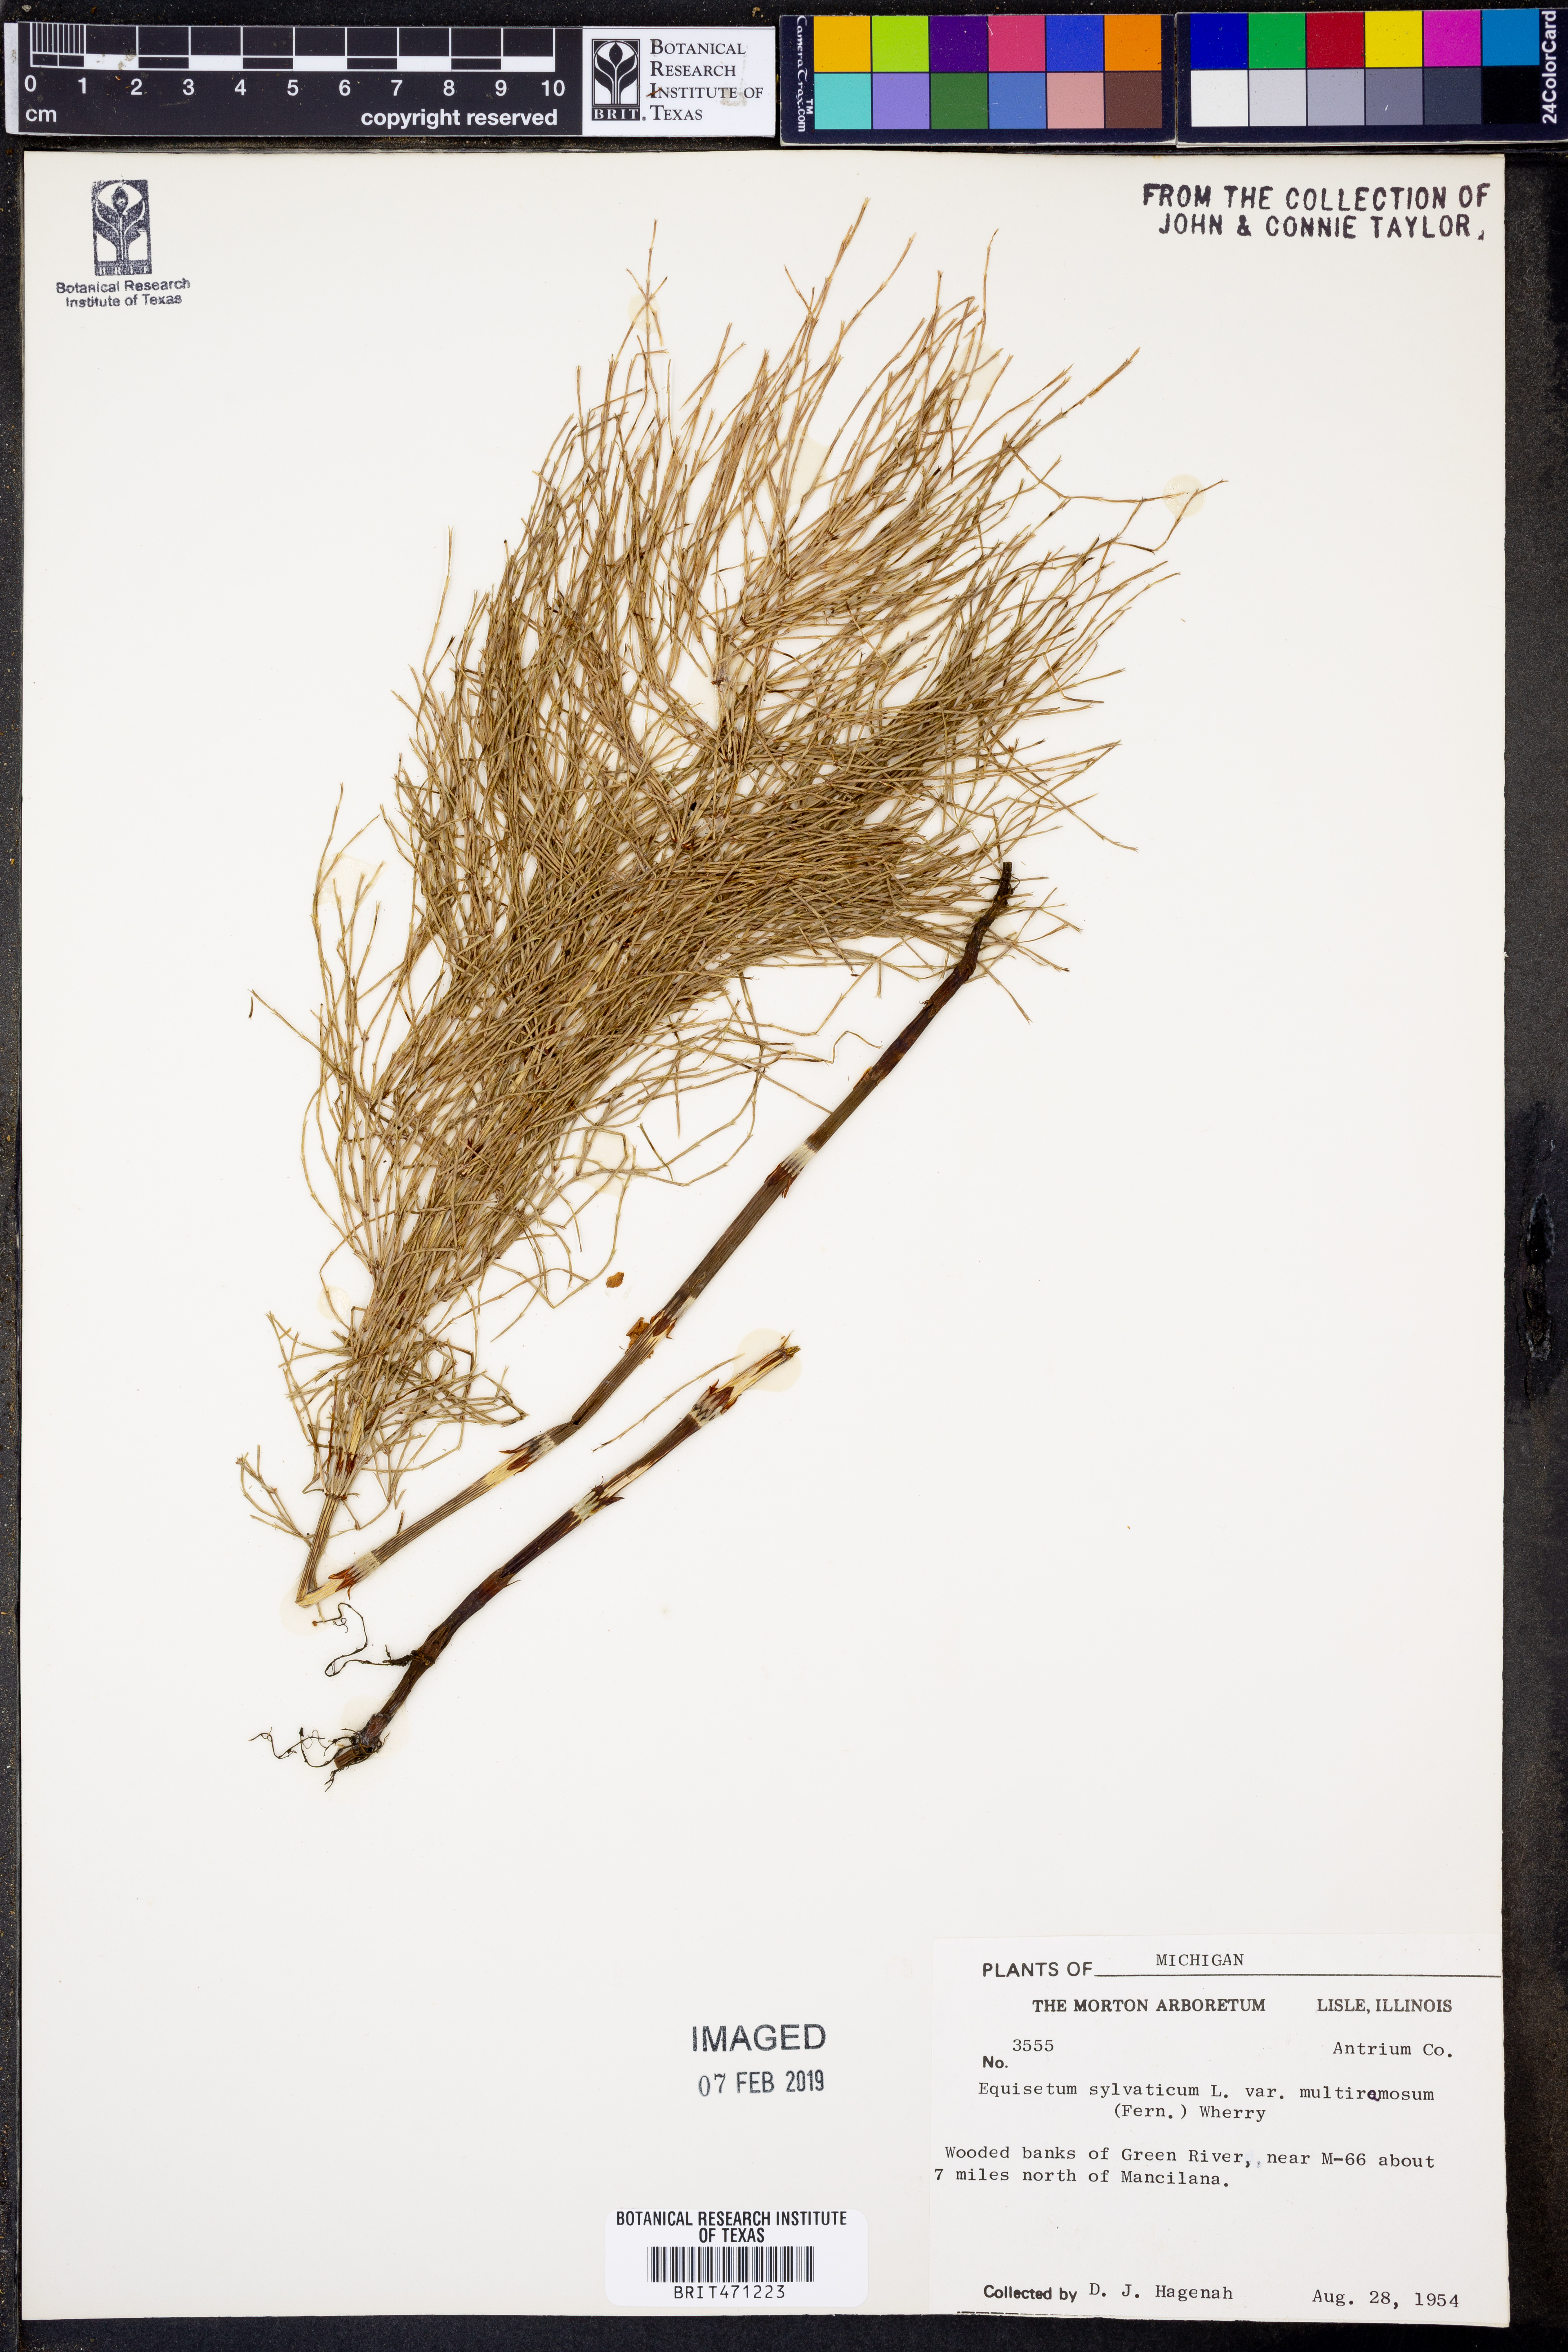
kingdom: Plantae
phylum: Tracheophyta
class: Polypodiopsida
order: Equisetales
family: Equisetaceae
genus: Equisetum
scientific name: Equisetum sylvaticum
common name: Wood horsetail
